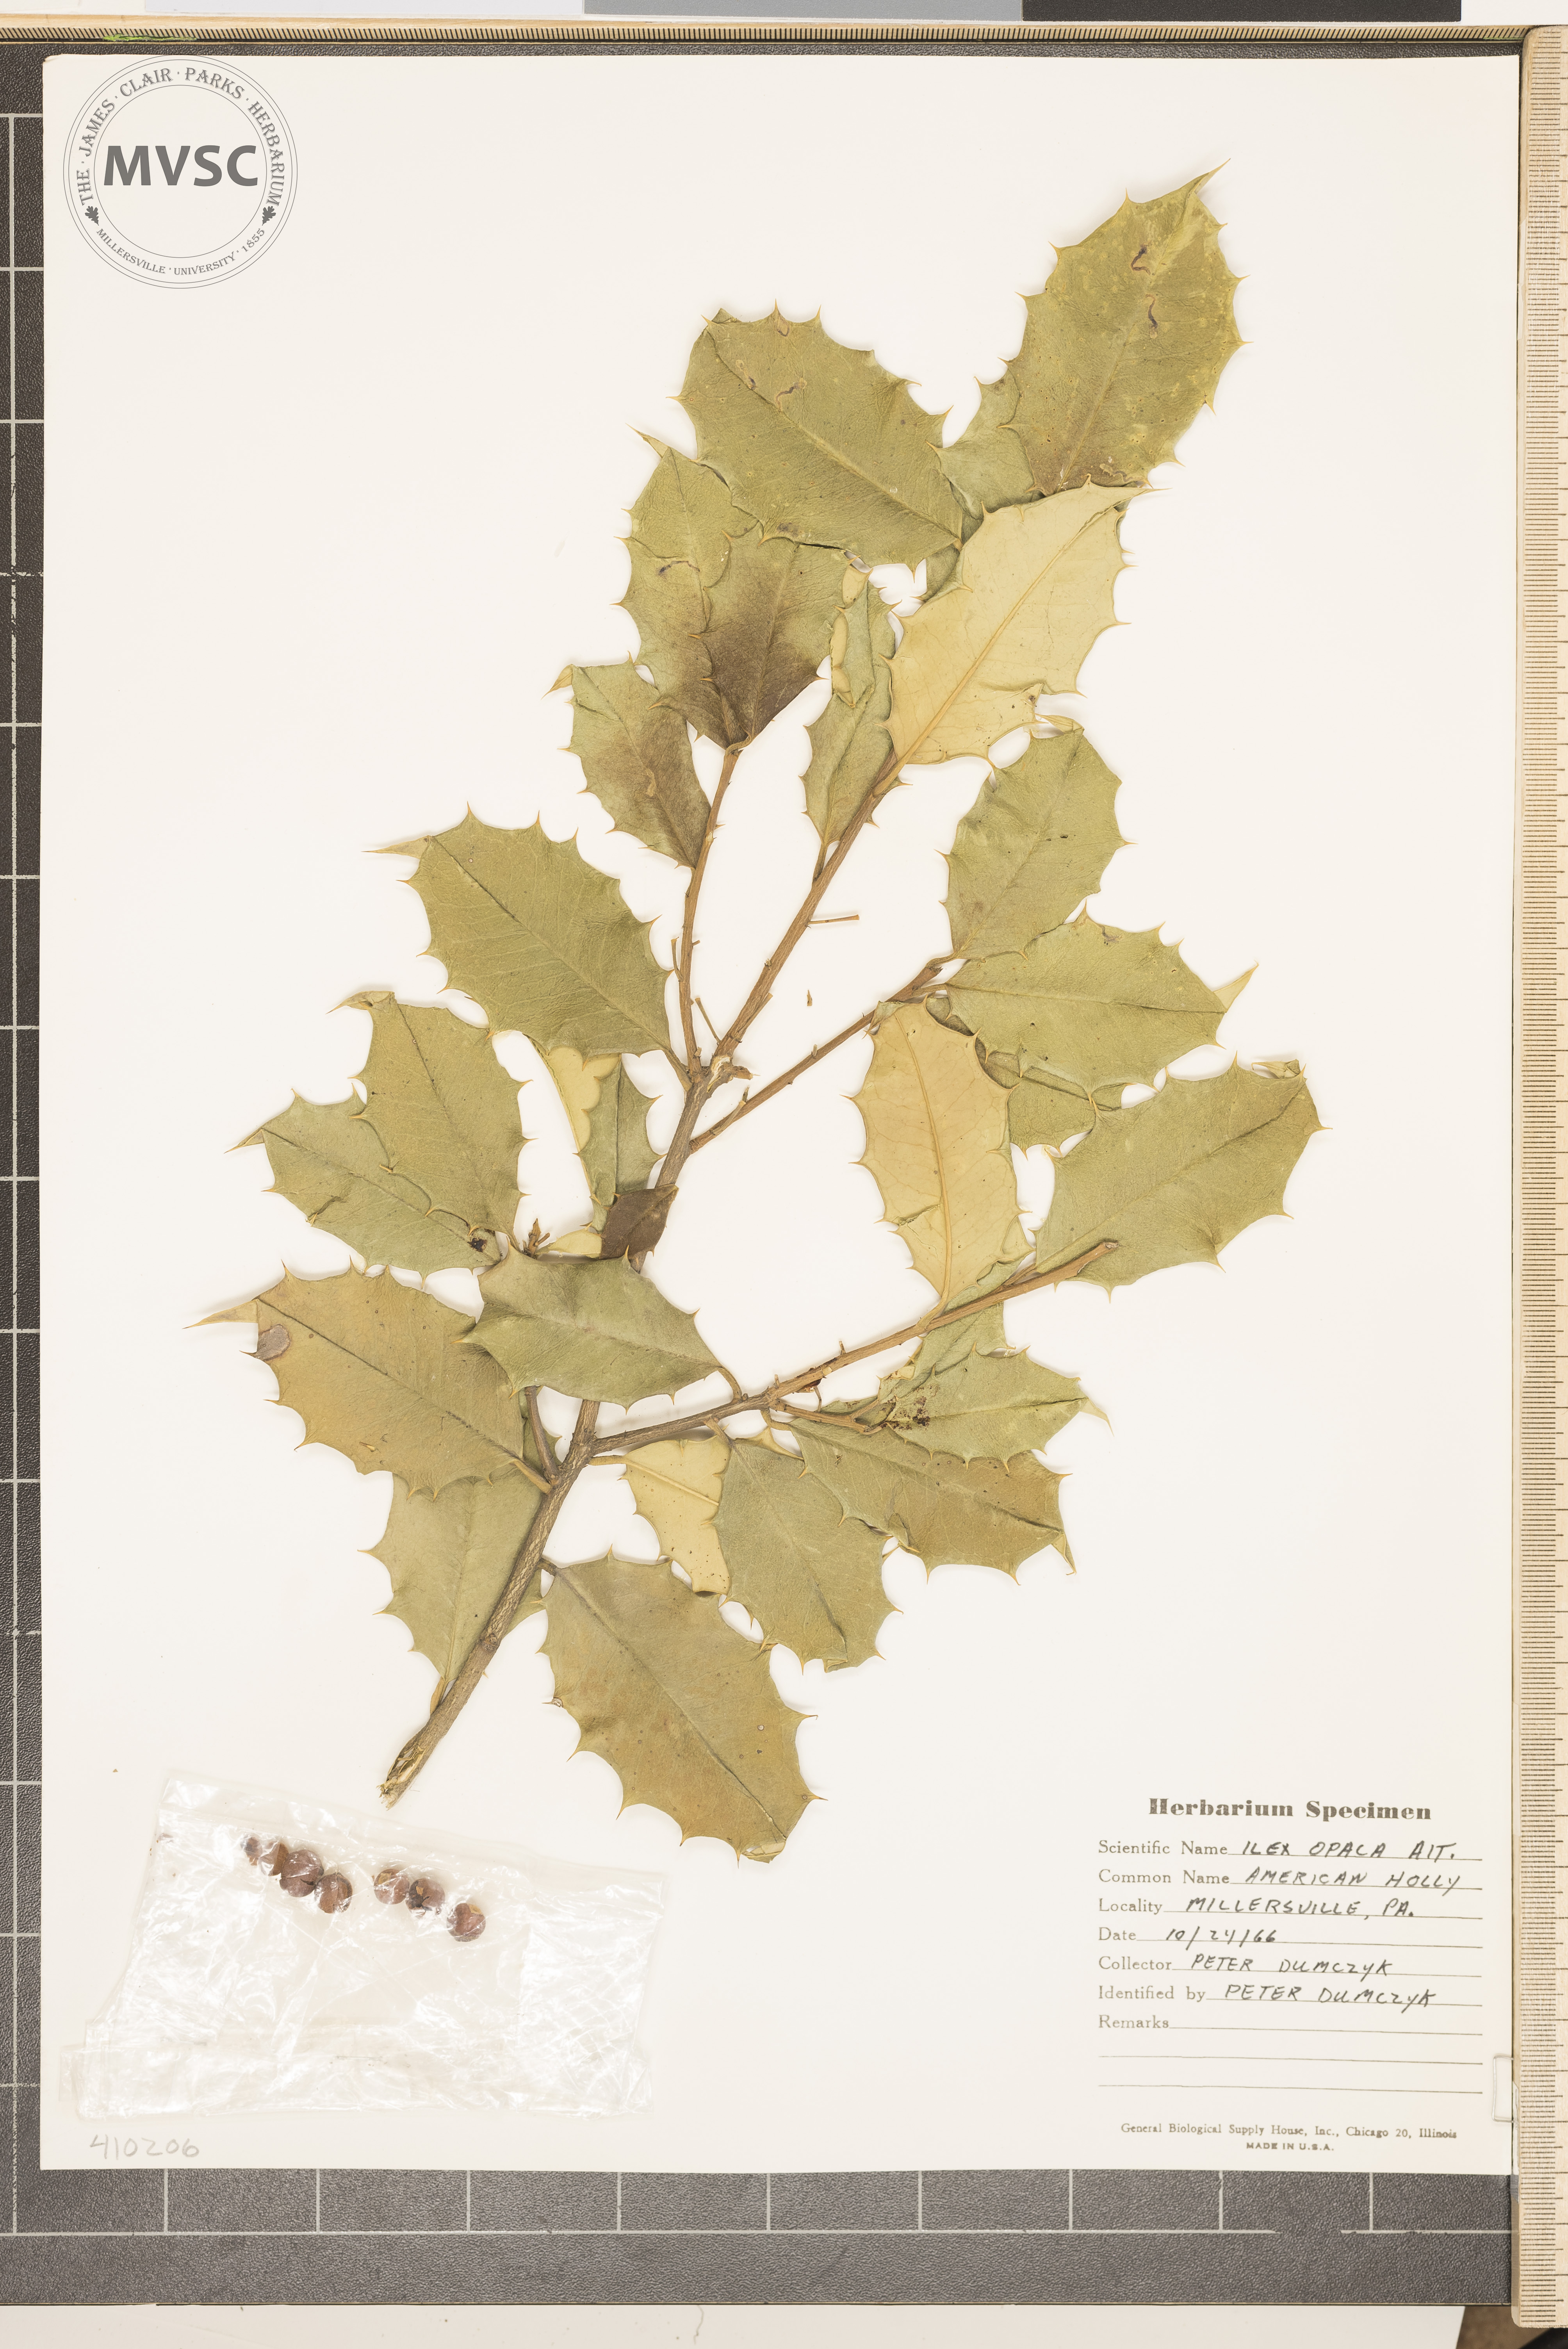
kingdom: Plantae
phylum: Tracheophyta
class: Magnoliopsida
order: Aquifoliales
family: Aquifoliaceae
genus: Ilex
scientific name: Ilex opaca
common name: American holly
